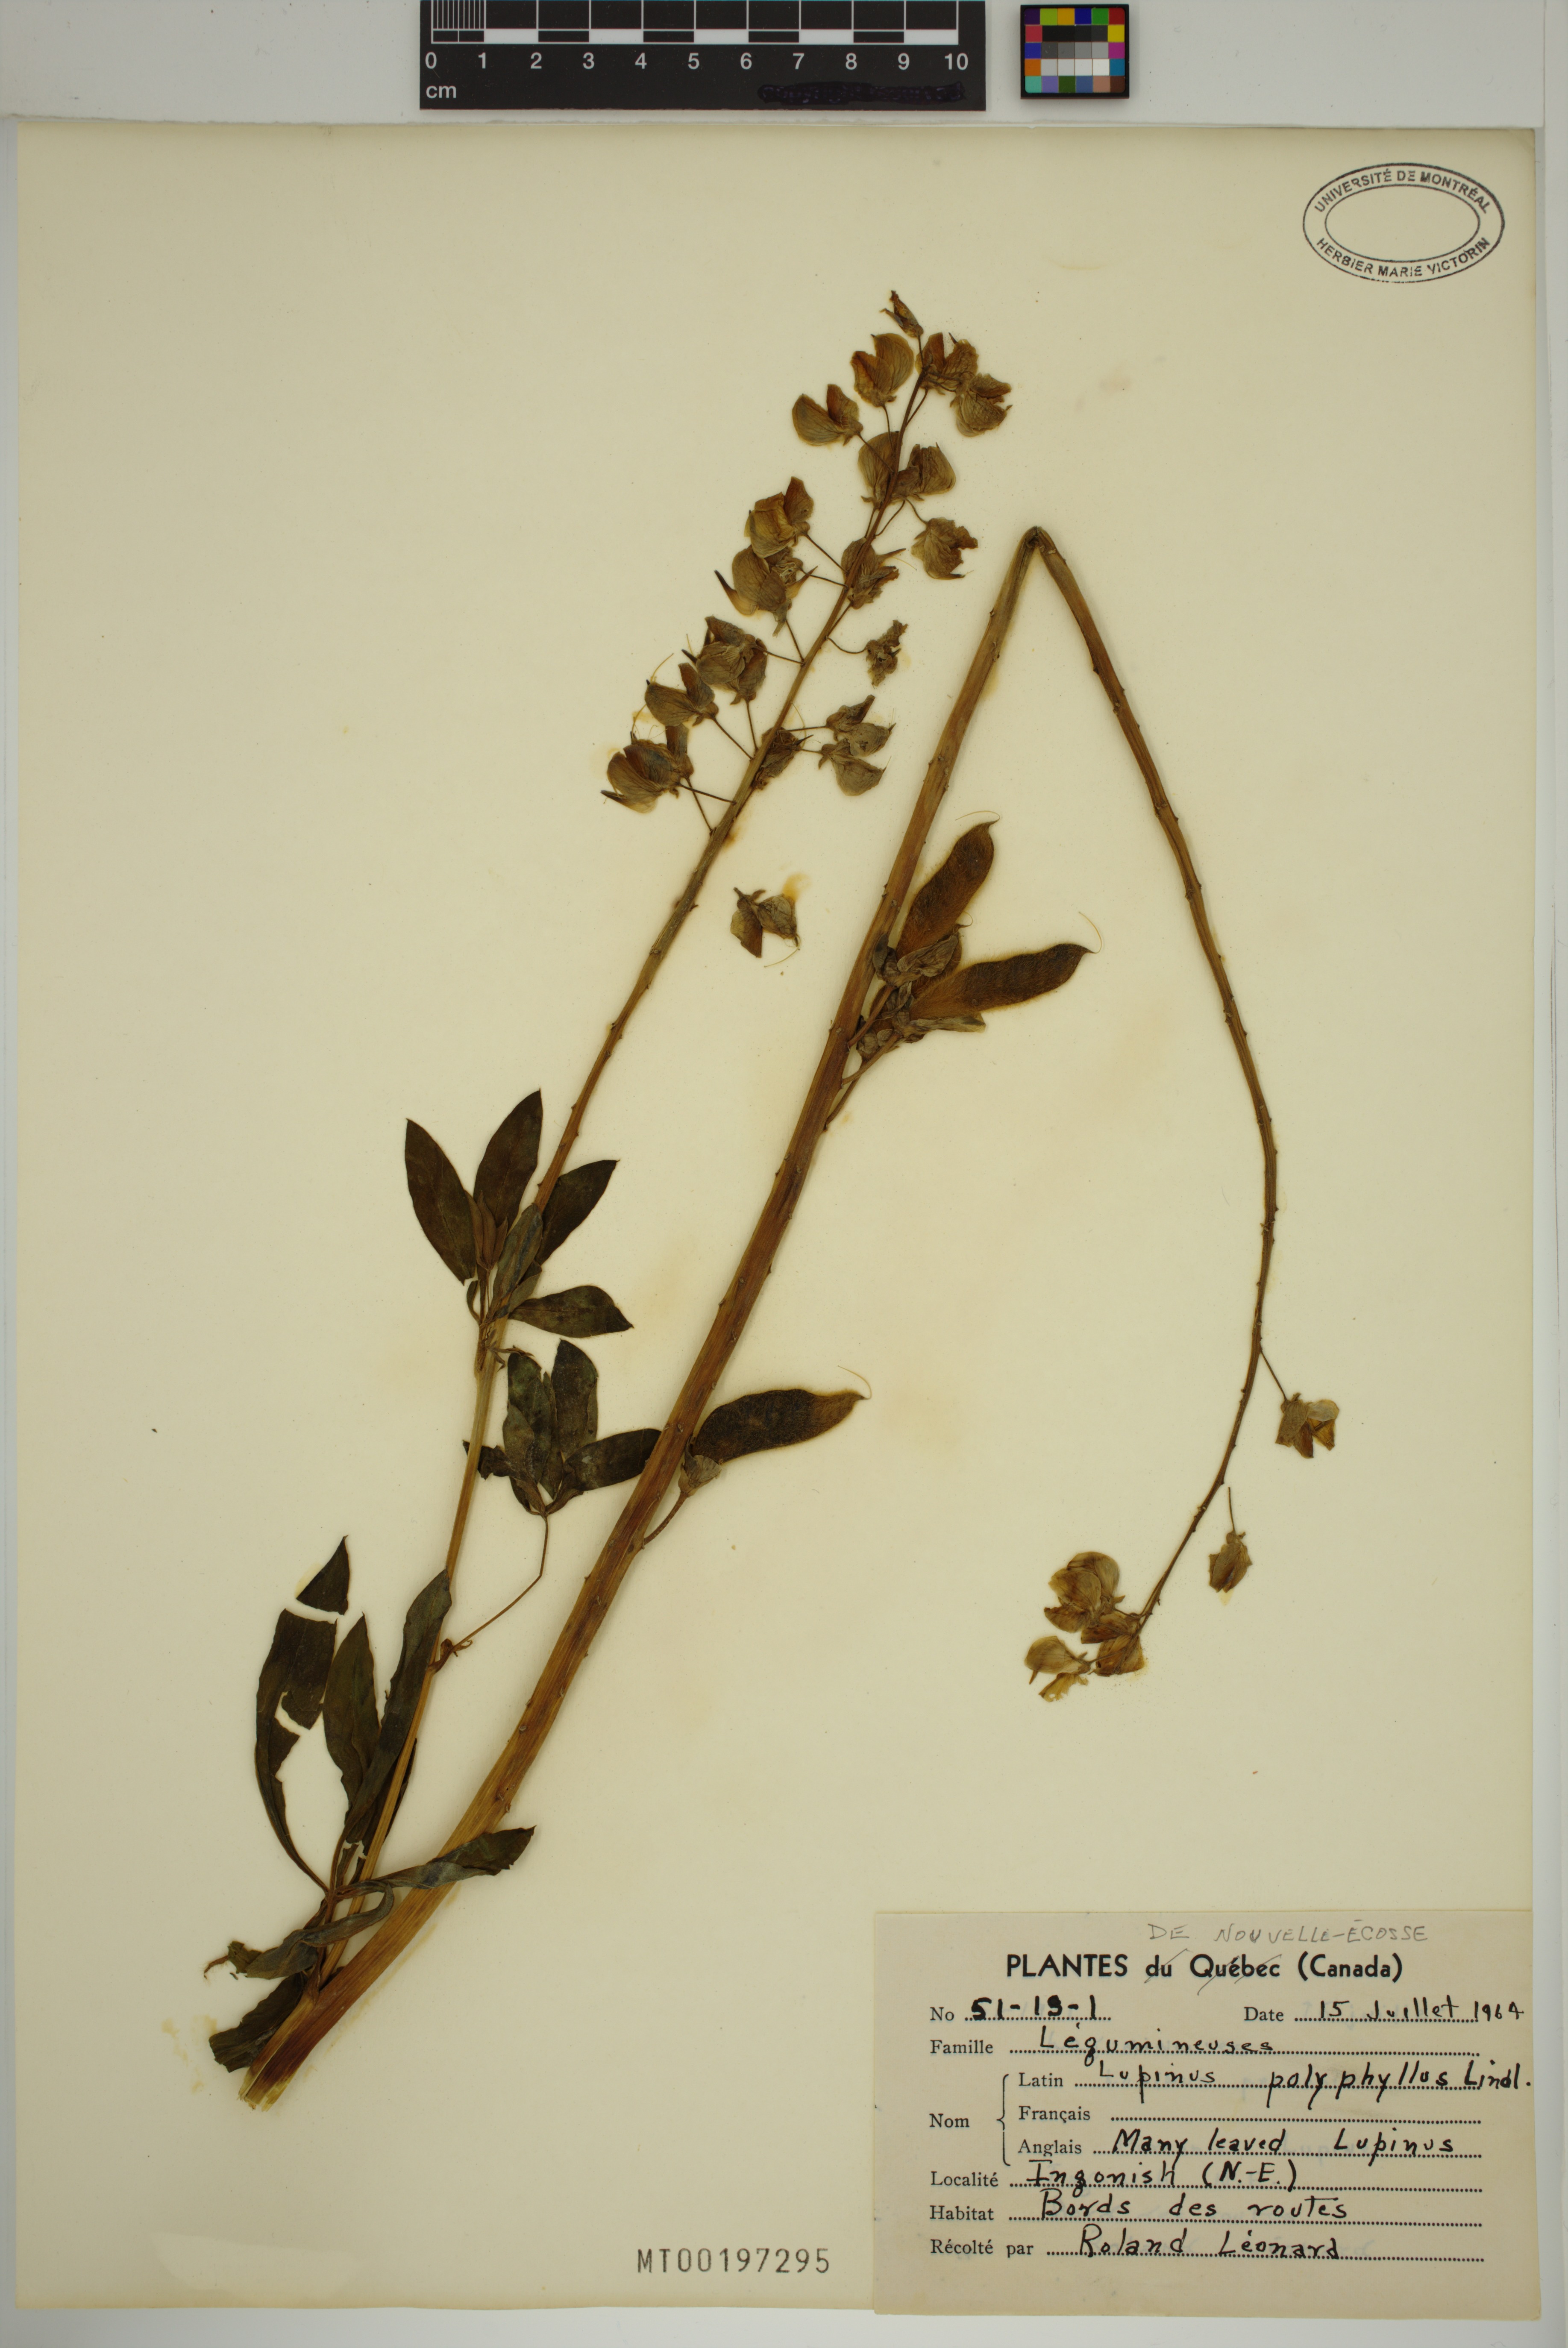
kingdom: Plantae
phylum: Tracheophyta
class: Magnoliopsida
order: Fabales
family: Fabaceae
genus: Lupinus
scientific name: Lupinus polyphyllus
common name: Garden lupin
